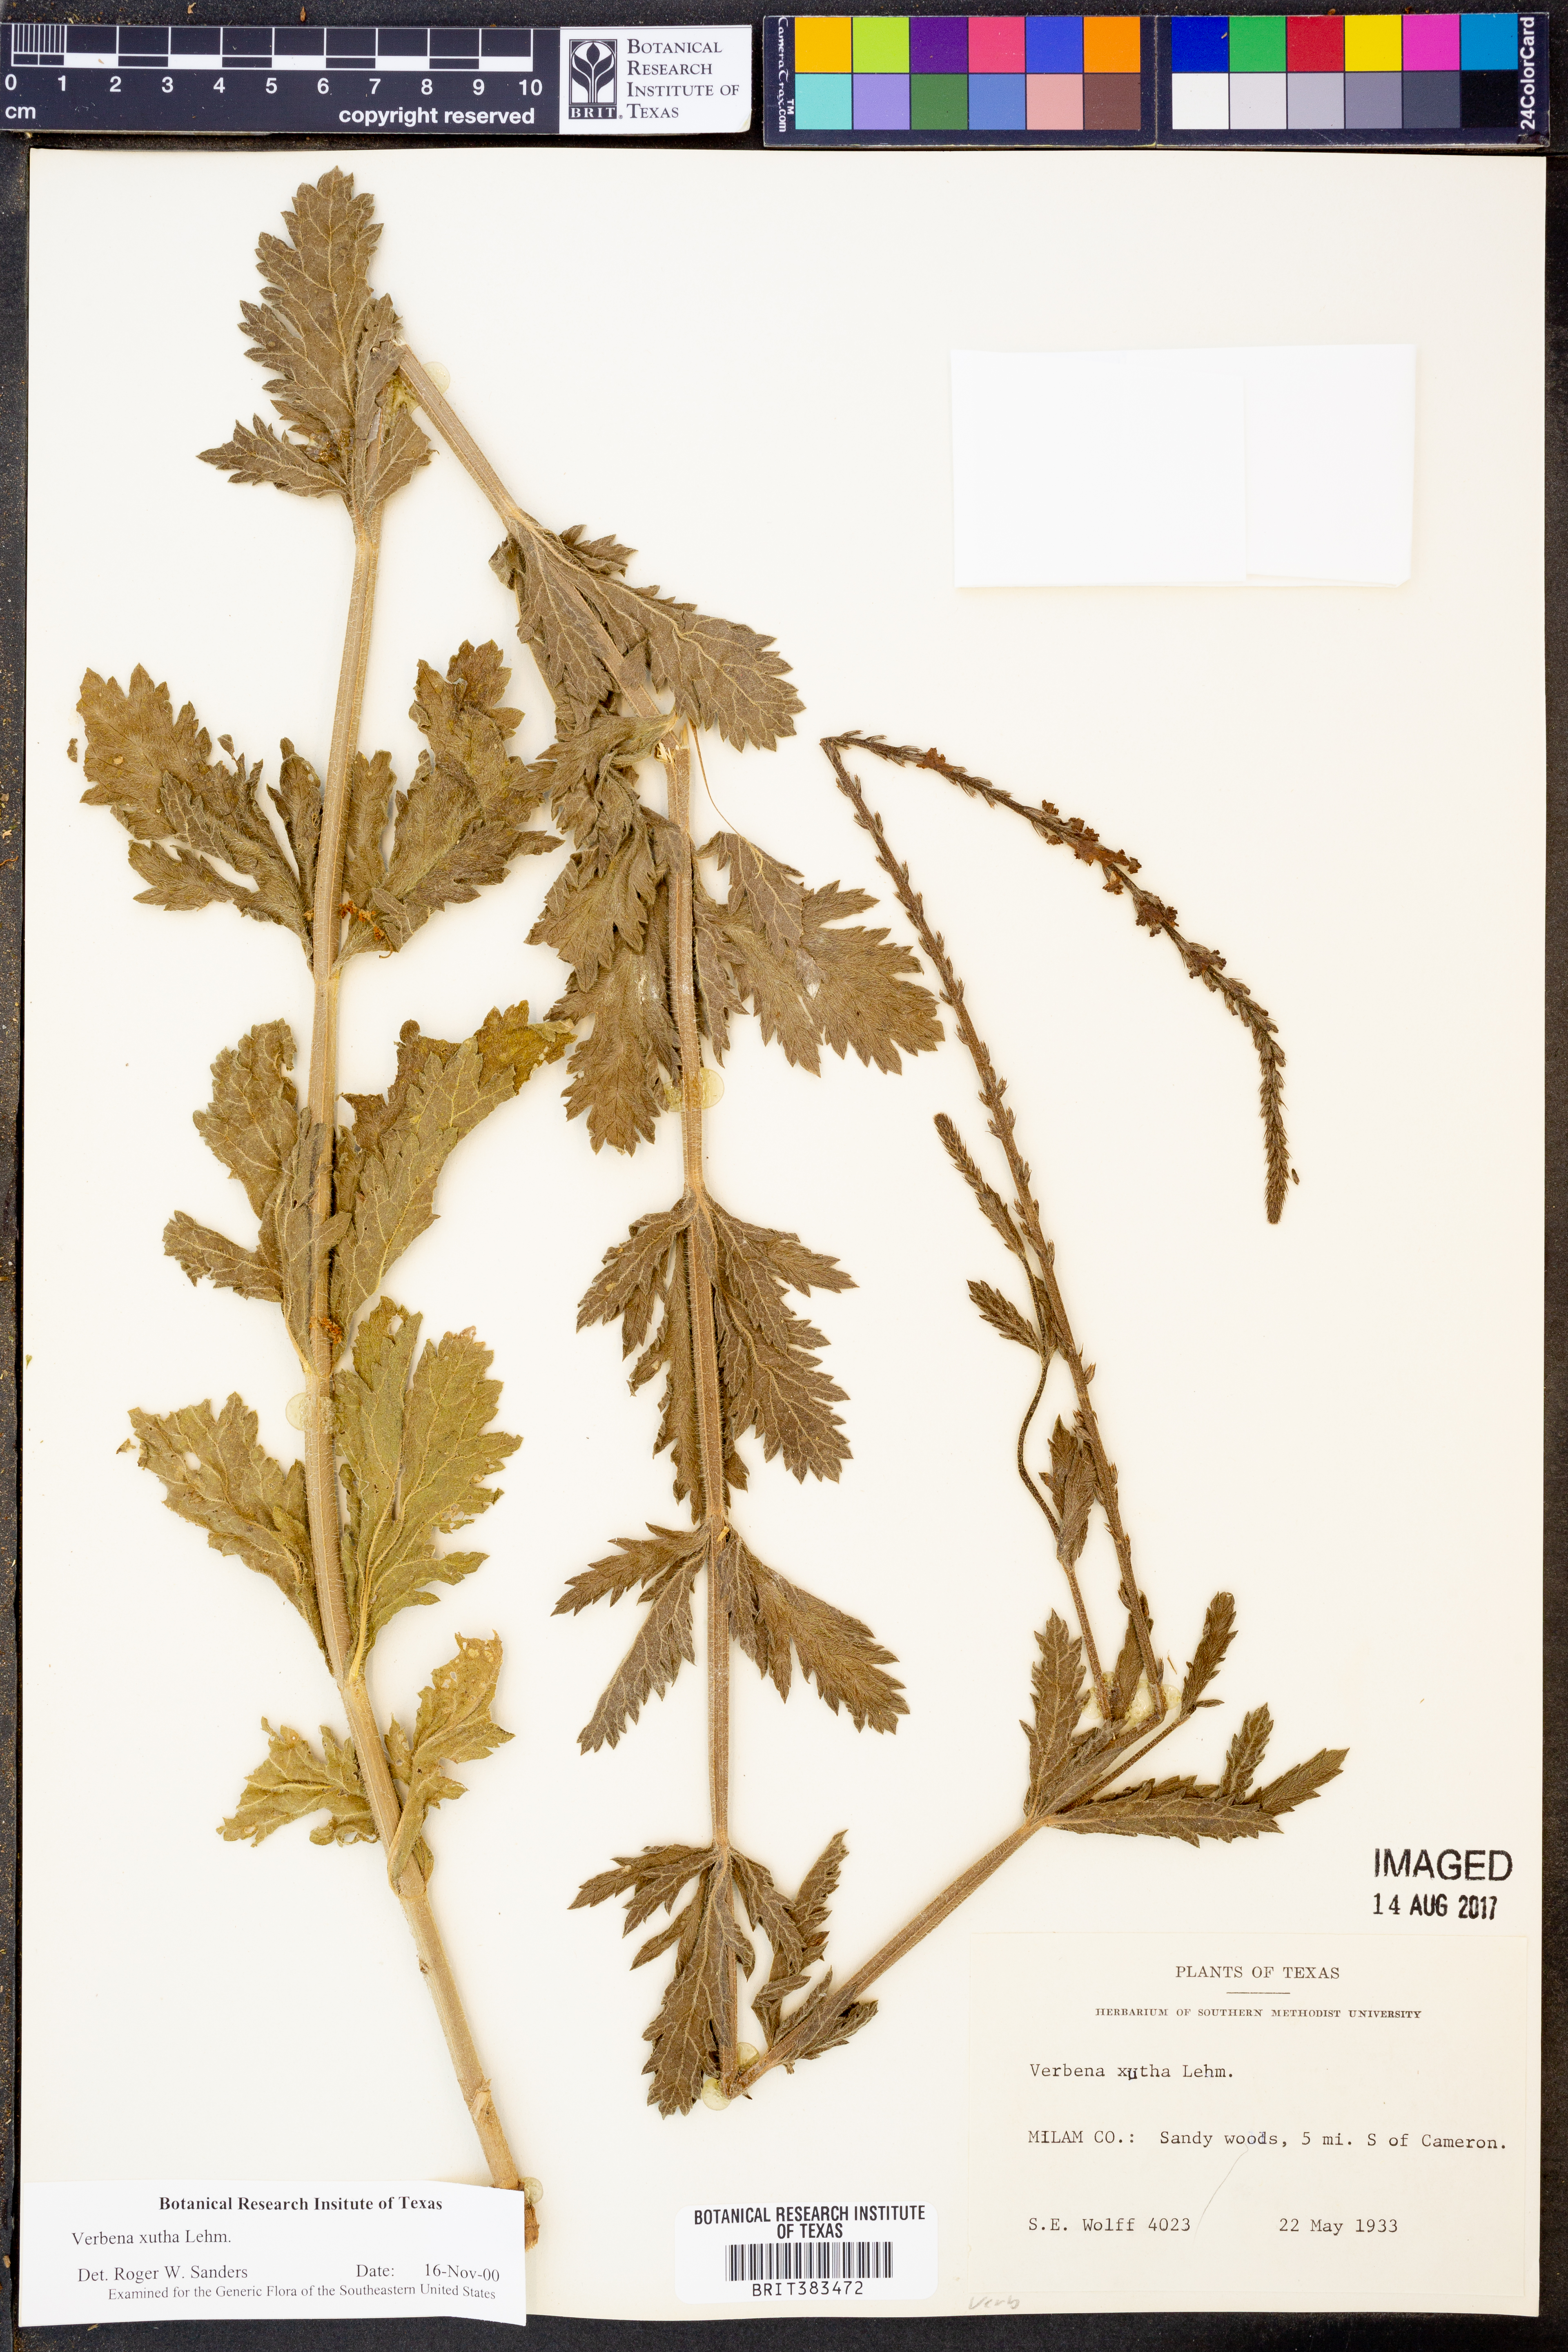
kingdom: Plantae
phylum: Tracheophyta
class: Magnoliopsida
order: Lamiales
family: Verbenaceae
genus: Verbena
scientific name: Verbena xutha
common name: Gulf vervain
